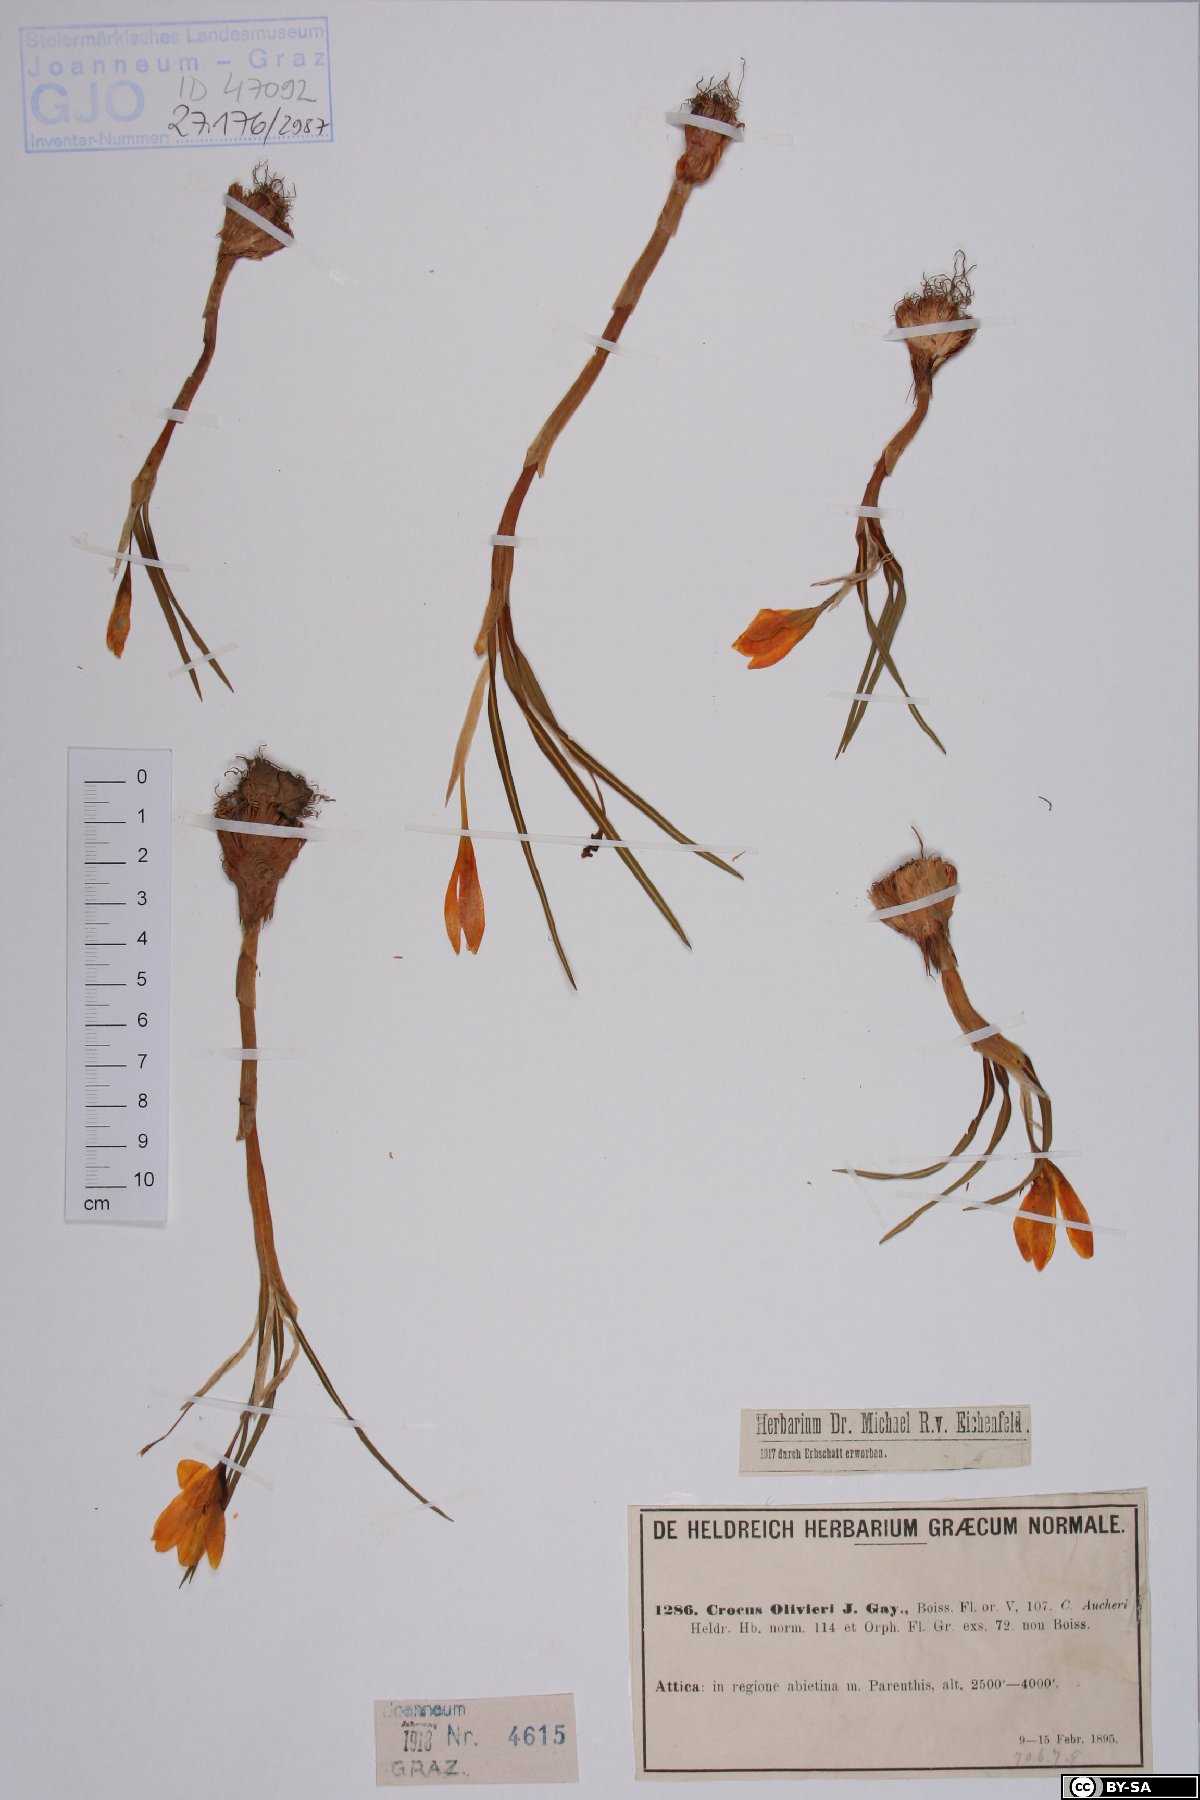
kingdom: Plantae
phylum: Tracheophyta
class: Liliopsida
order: Asparagales
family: Iridaceae
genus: Crocus
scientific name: Crocus olivieri
